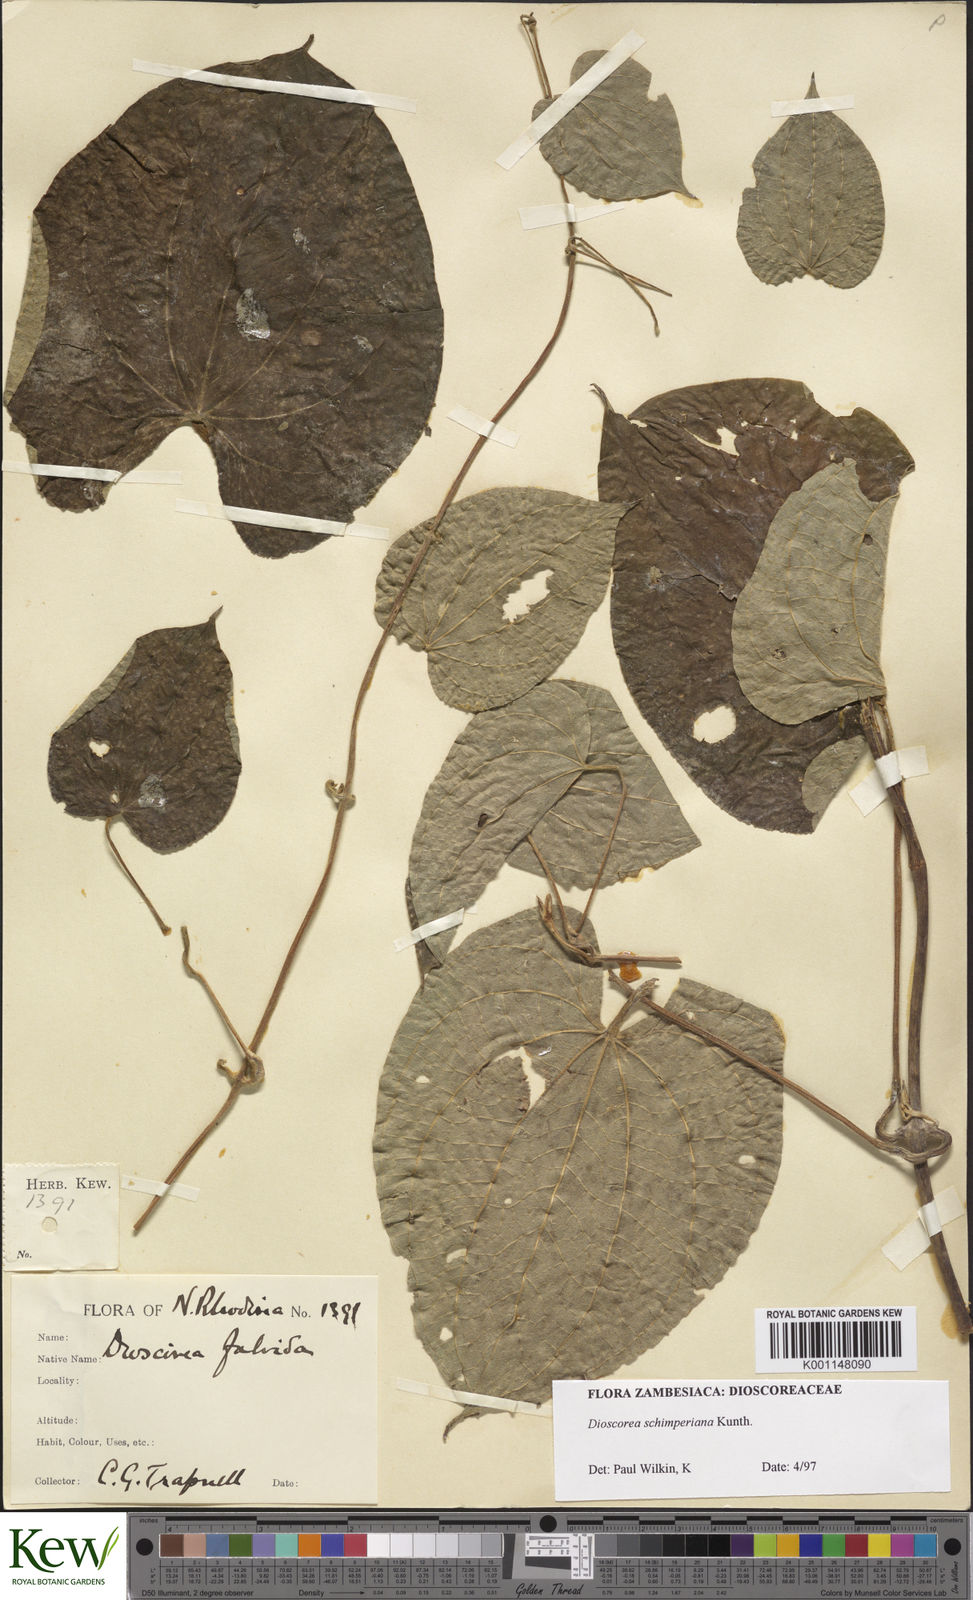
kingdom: Plantae
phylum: Tracheophyta
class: Liliopsida
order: Dioscoreales
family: Dioscoreaceae
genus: Dioscorea
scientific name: Dioscorea schimperiana
